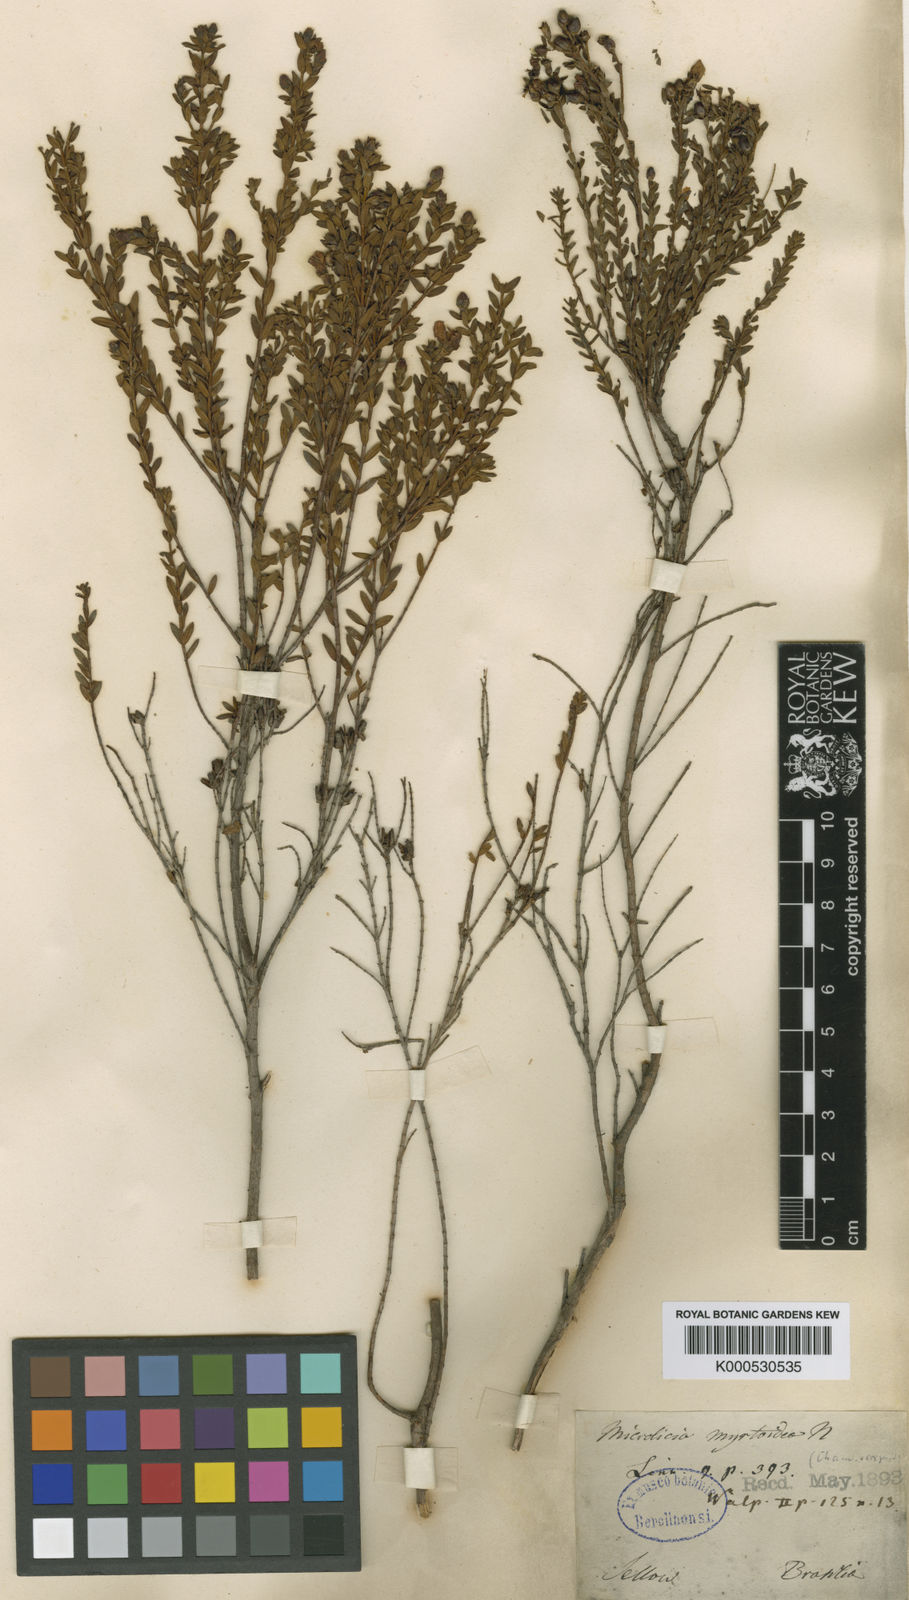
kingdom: Plantae
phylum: Tracheophyta
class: Magnoliopsida
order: Myrtales
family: Melastomataceae
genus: Microlicia
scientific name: Microlicia myrtoidea
